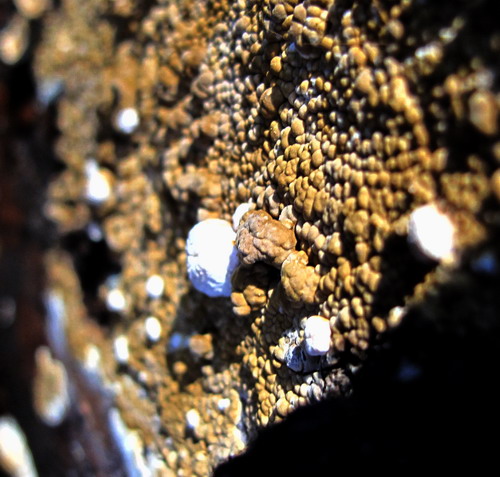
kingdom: Fungi
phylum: Ascomycota
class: Sordariomycetes
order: Xylariales
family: Hypoxylaceae
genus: Nodulisporium
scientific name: Nodulisporium cecidiogenes
